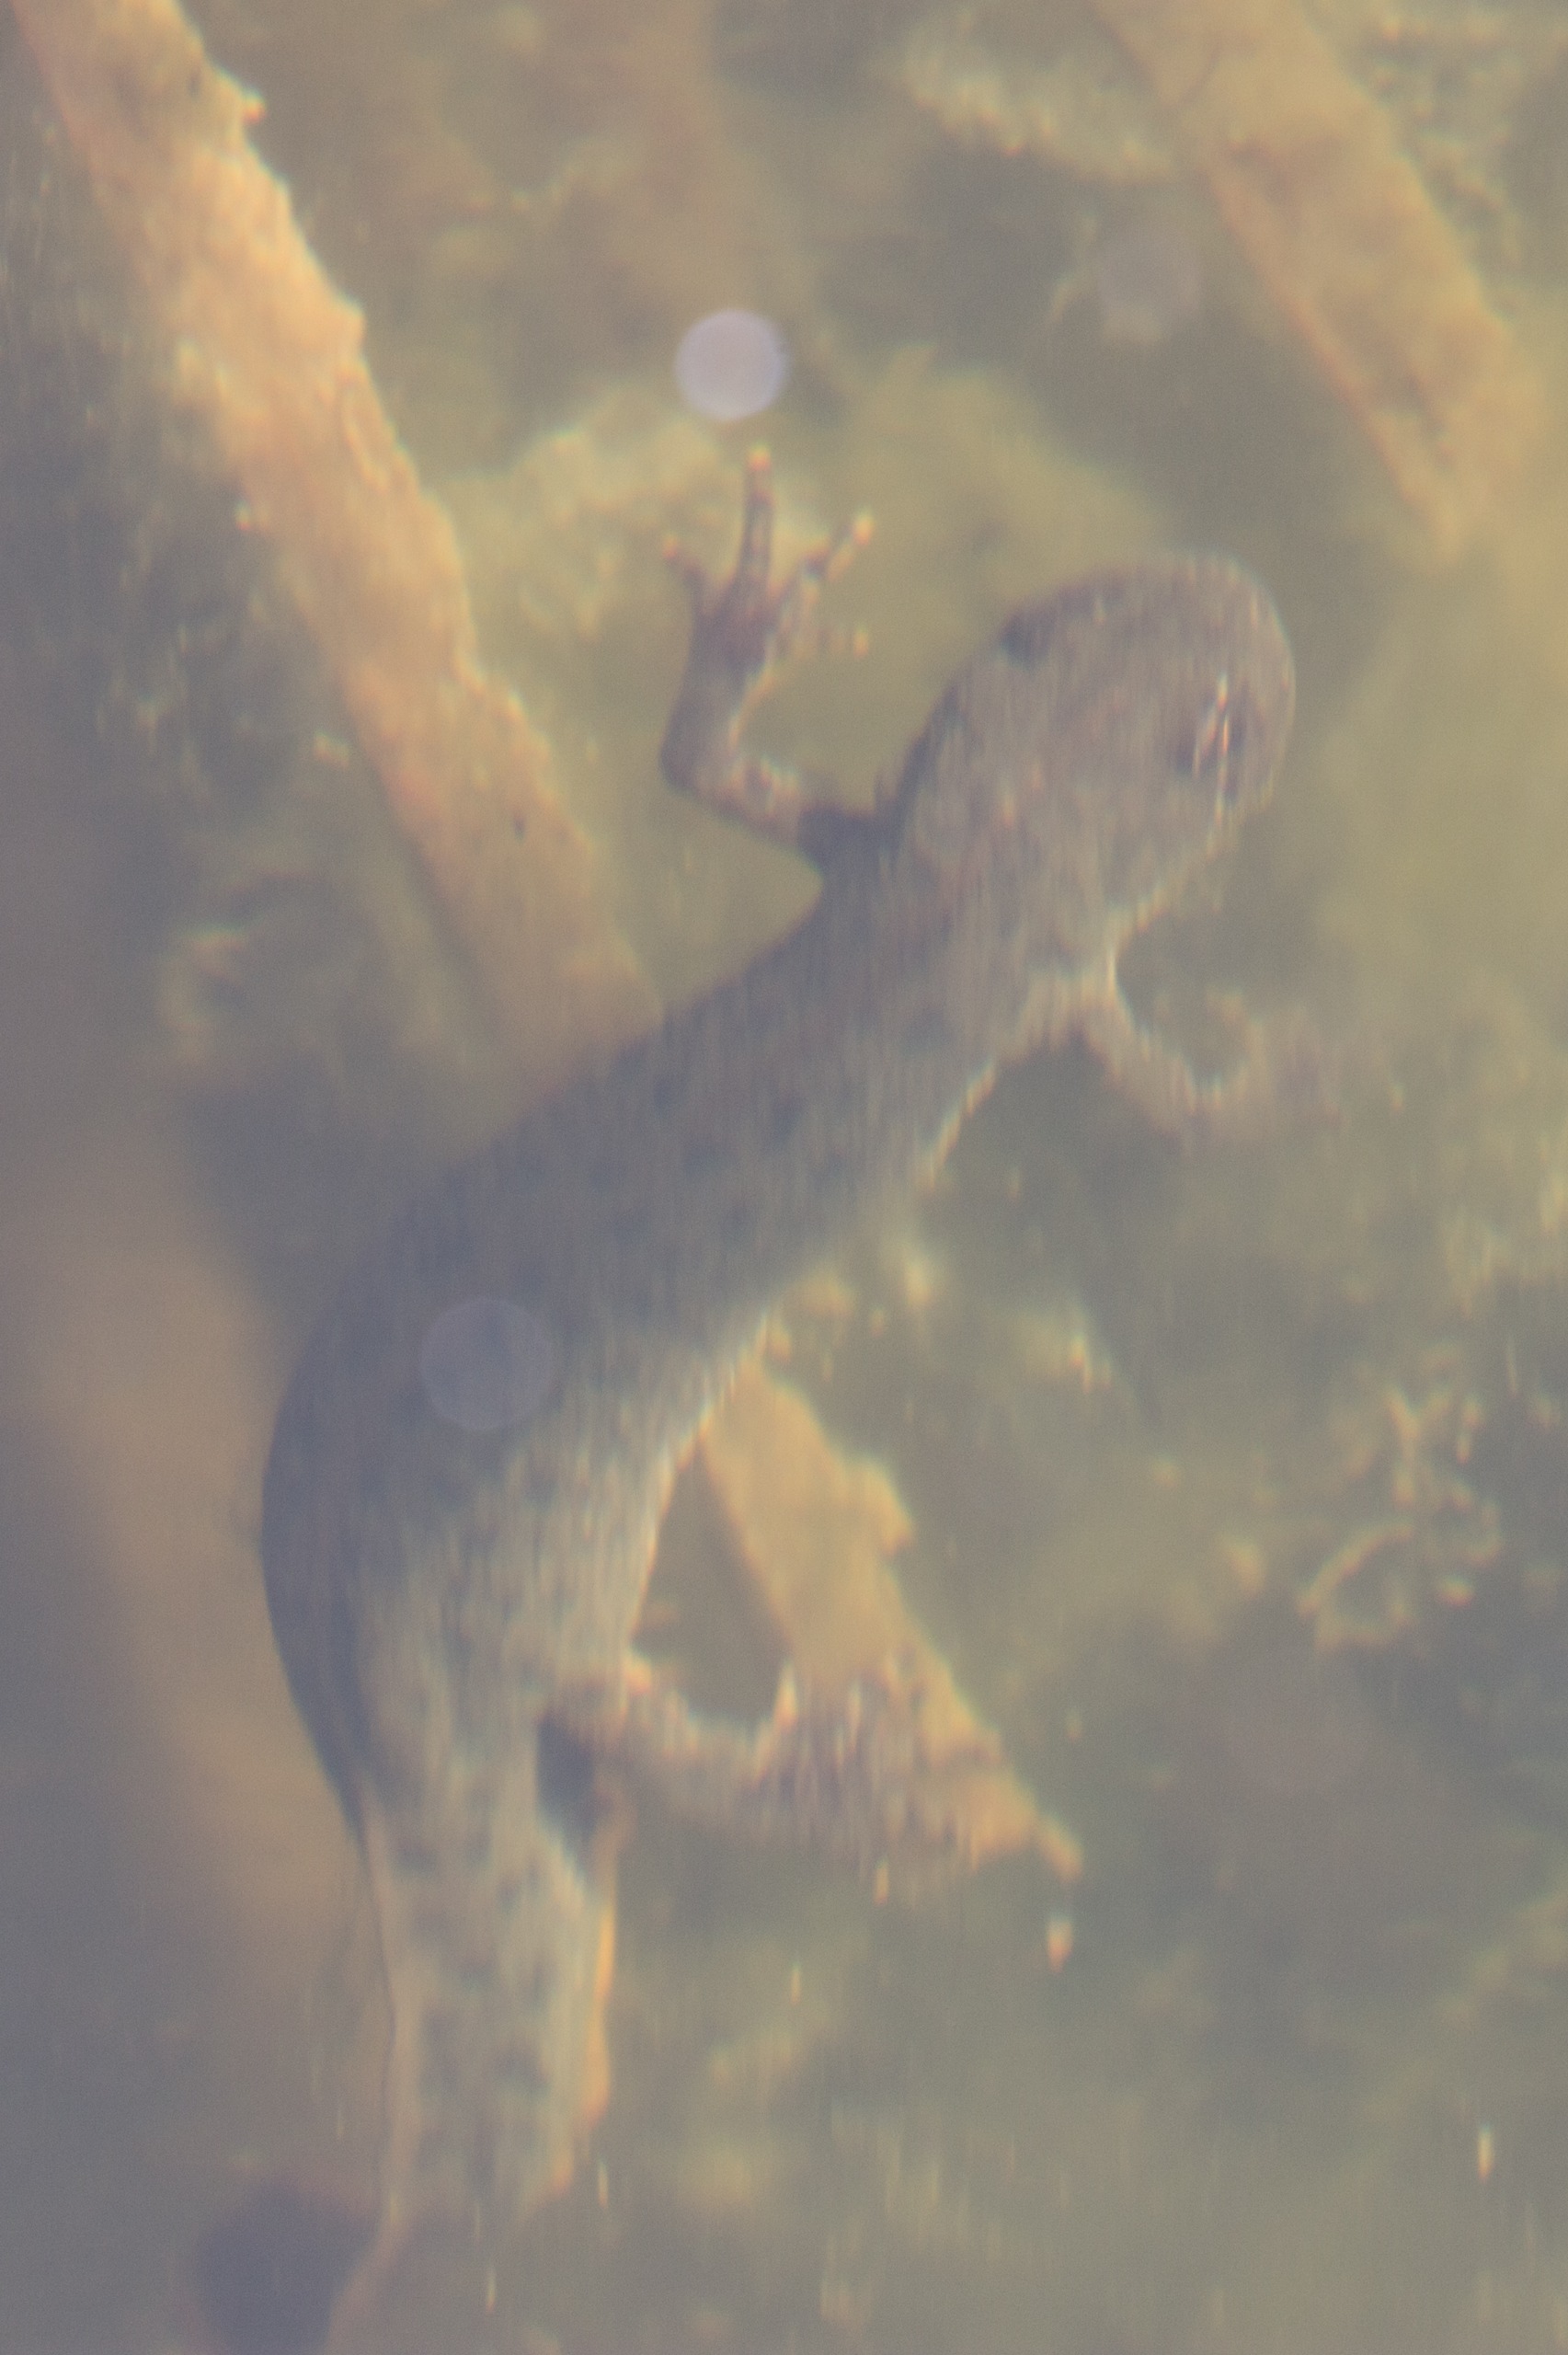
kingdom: Animalia
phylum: Chordata
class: Amphibia
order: Caudata
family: Salamandridae
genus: Triturus
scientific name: Triturus cristatus
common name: Stor vandsalamander
